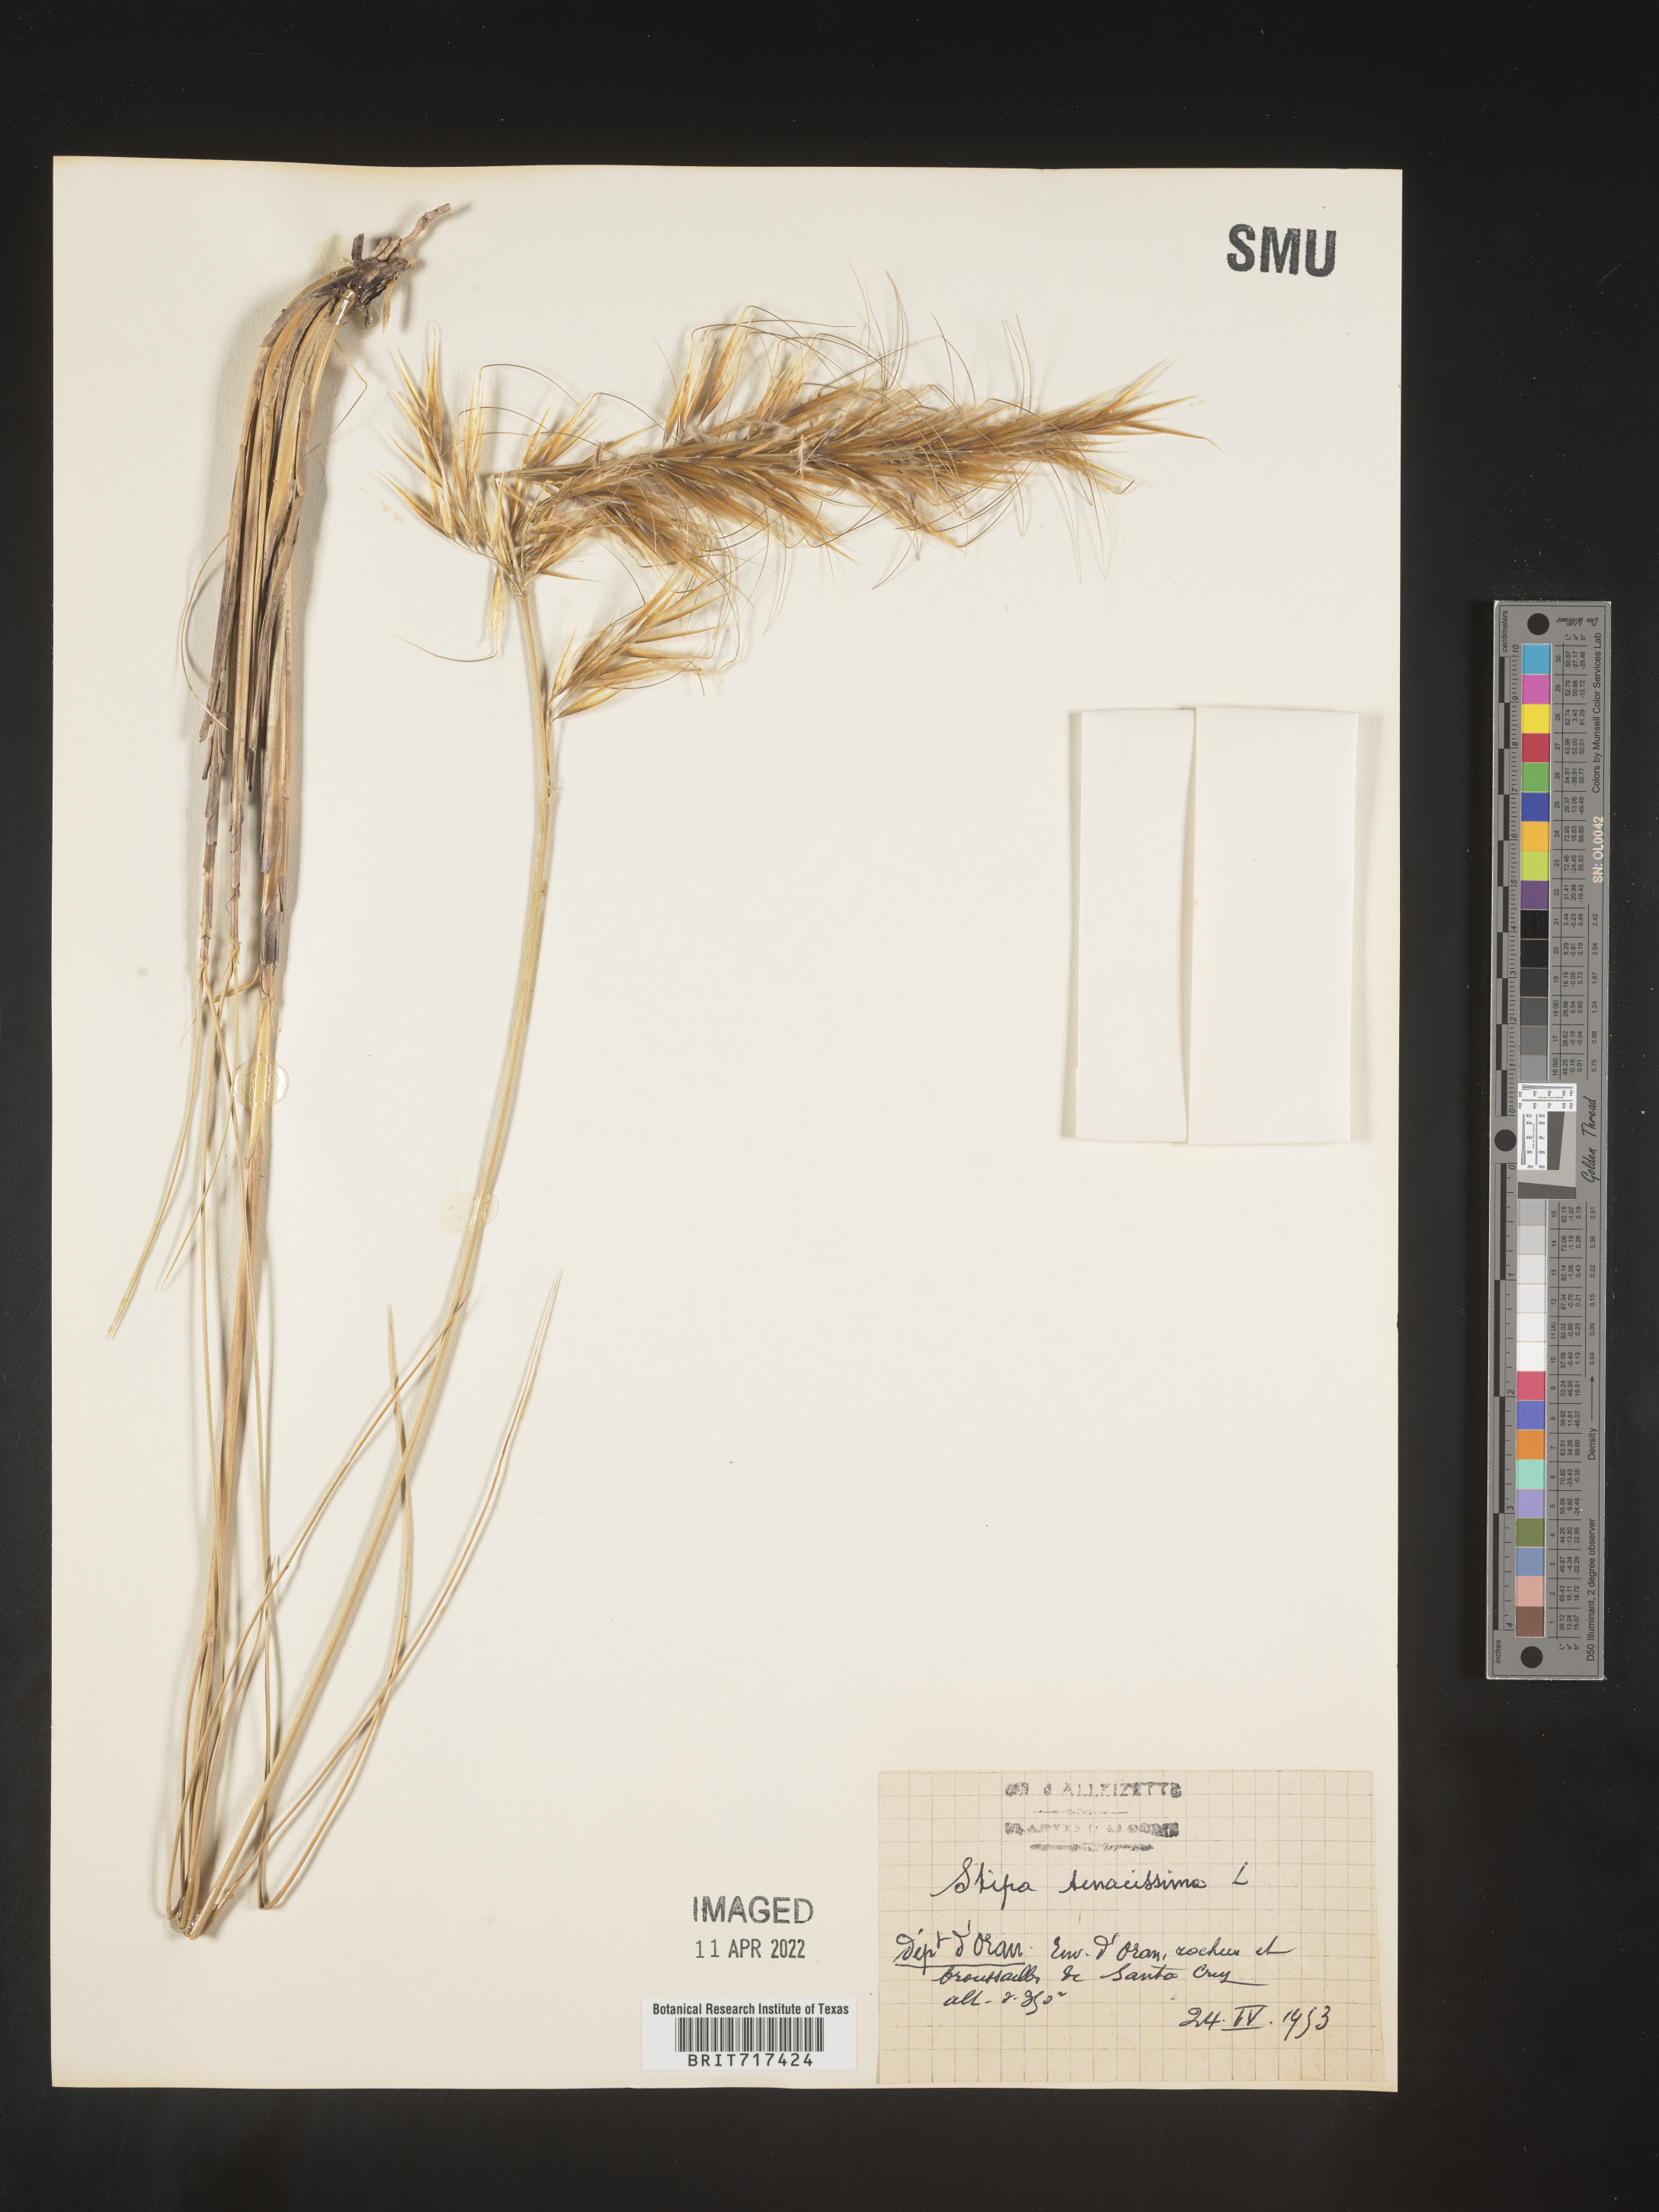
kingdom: Plantae
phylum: Tracheophyta
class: Liliopsida
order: Poales
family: Poaceae
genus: Stipa
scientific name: Stipa
